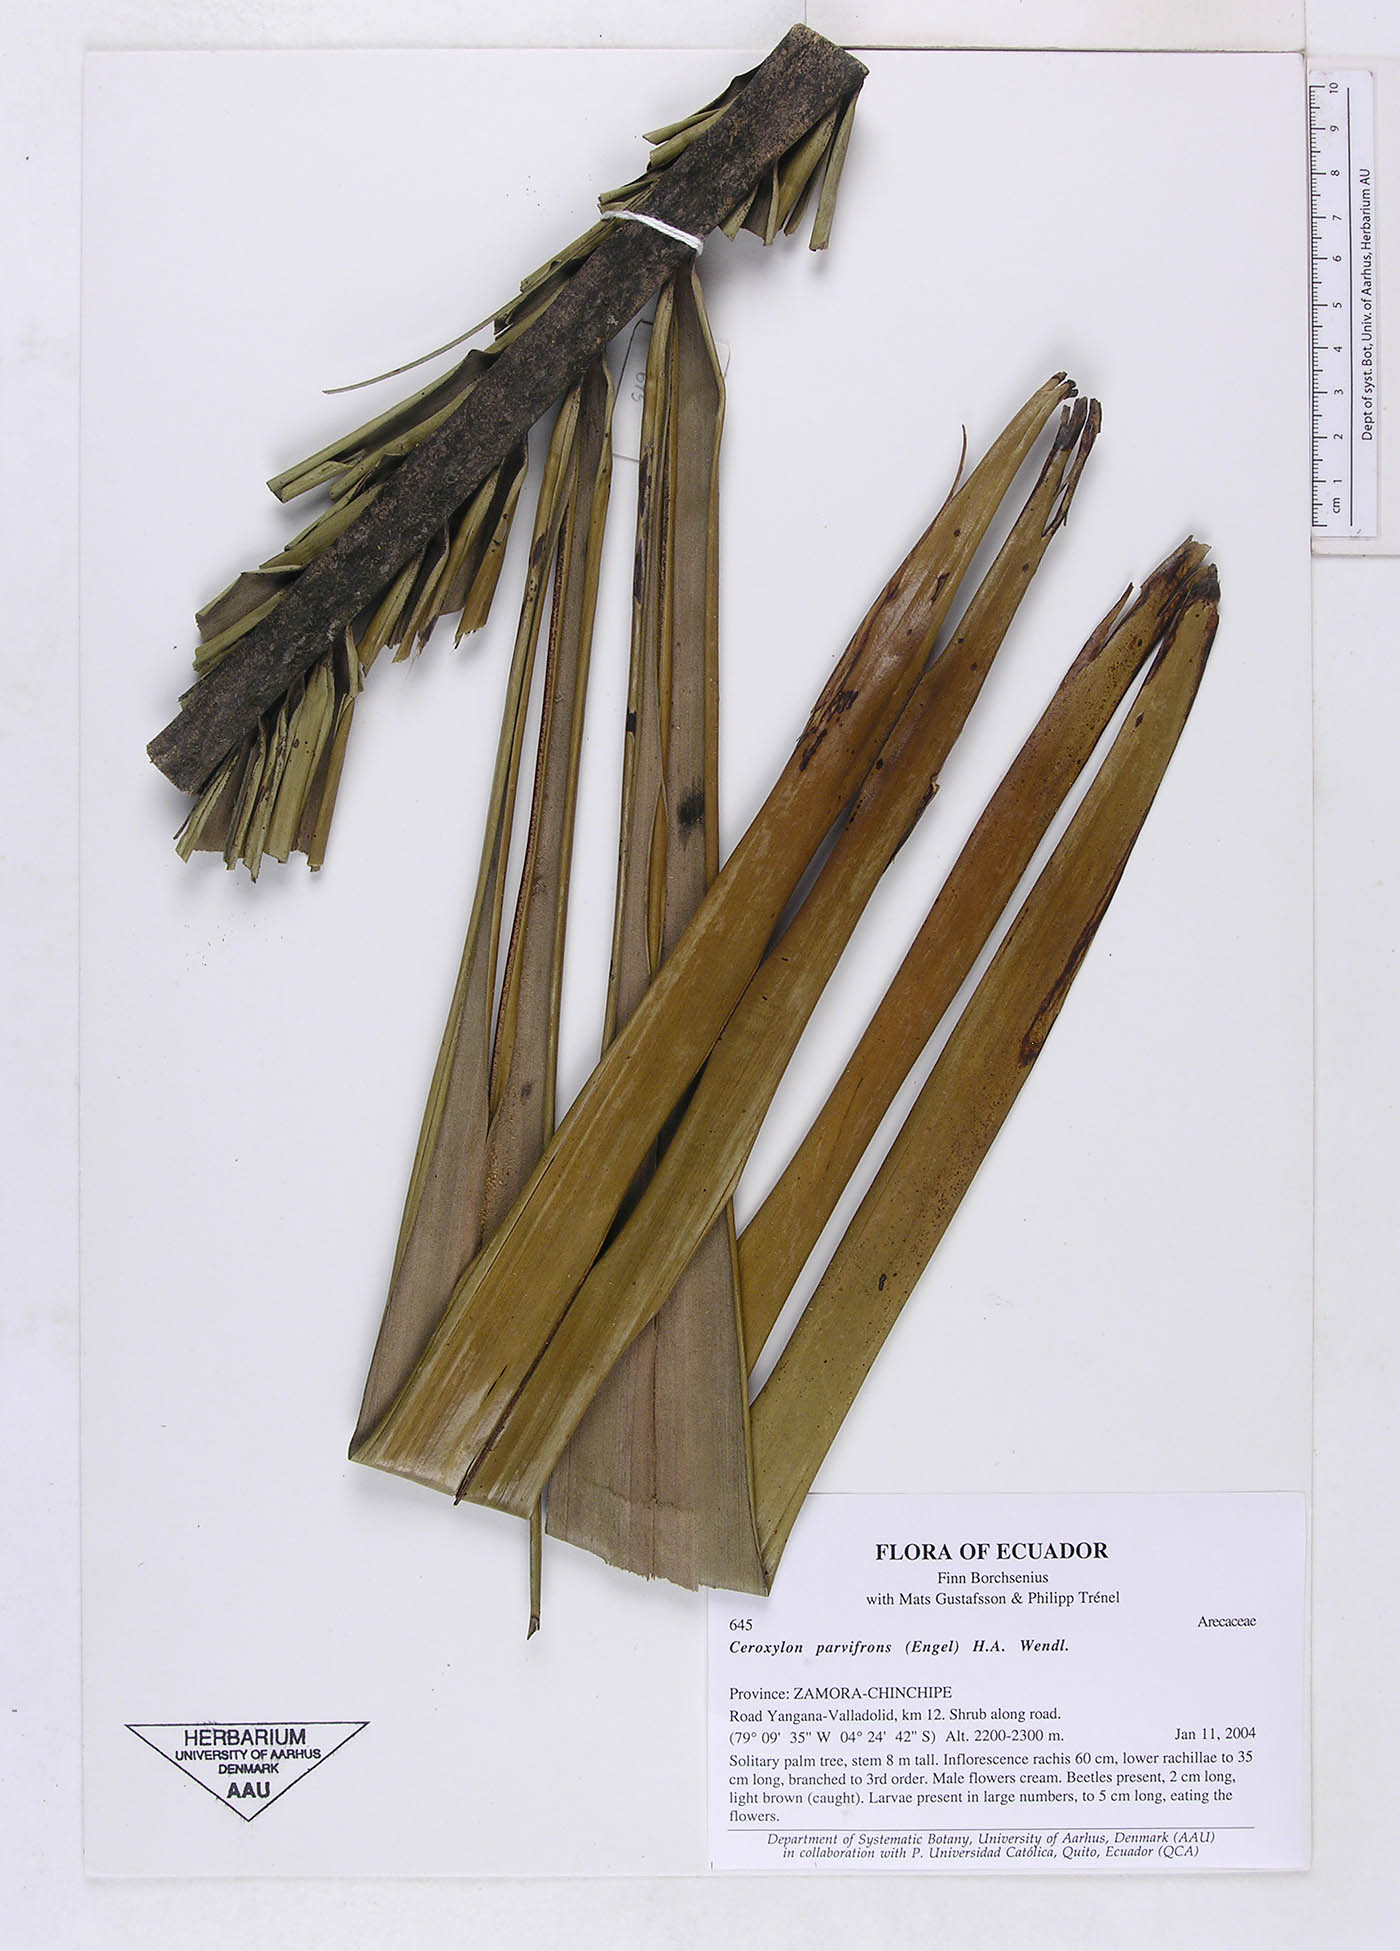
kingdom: Plantae
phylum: Tracheophyta
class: Liliopsida
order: Arecales
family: Arecaceae
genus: Ceroxylon
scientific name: Ceroxylon parvifrons
